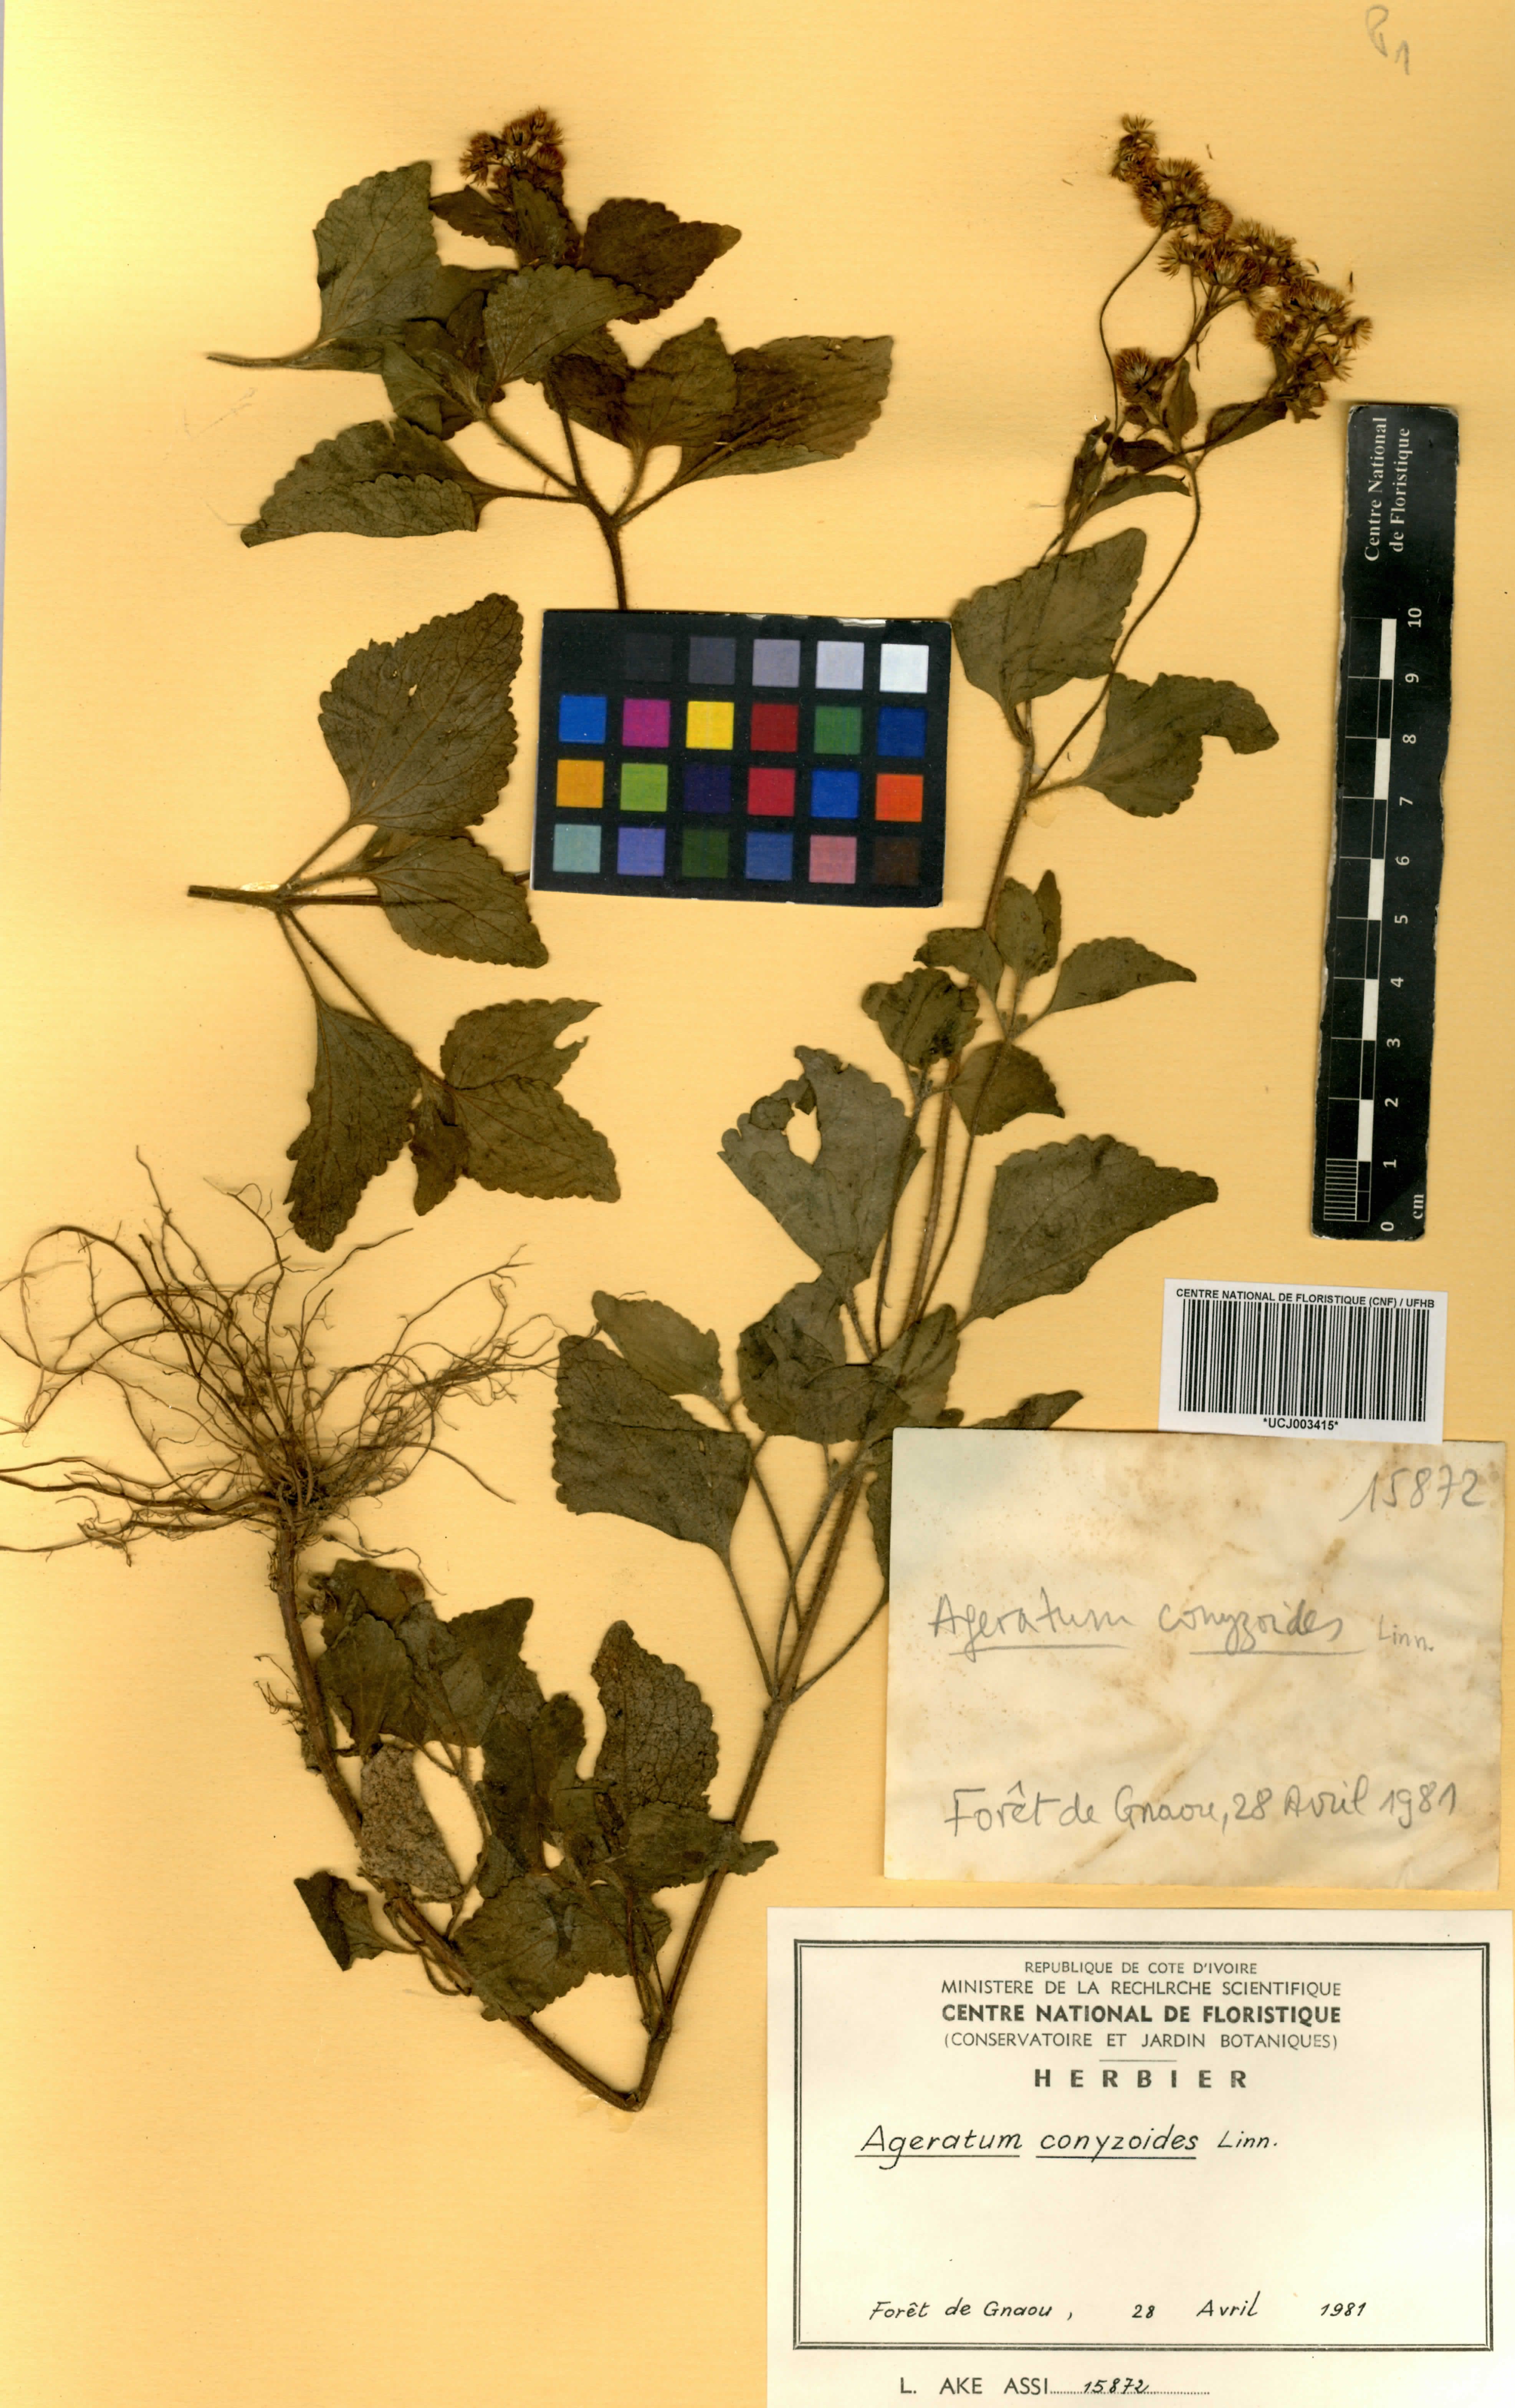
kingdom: Plantae
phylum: Tracheophyta
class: Magnoliopsida
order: Asterales
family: Asteraceae
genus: Ageratum
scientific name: Ageratum conyzoides
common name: Tropical whiteweed
